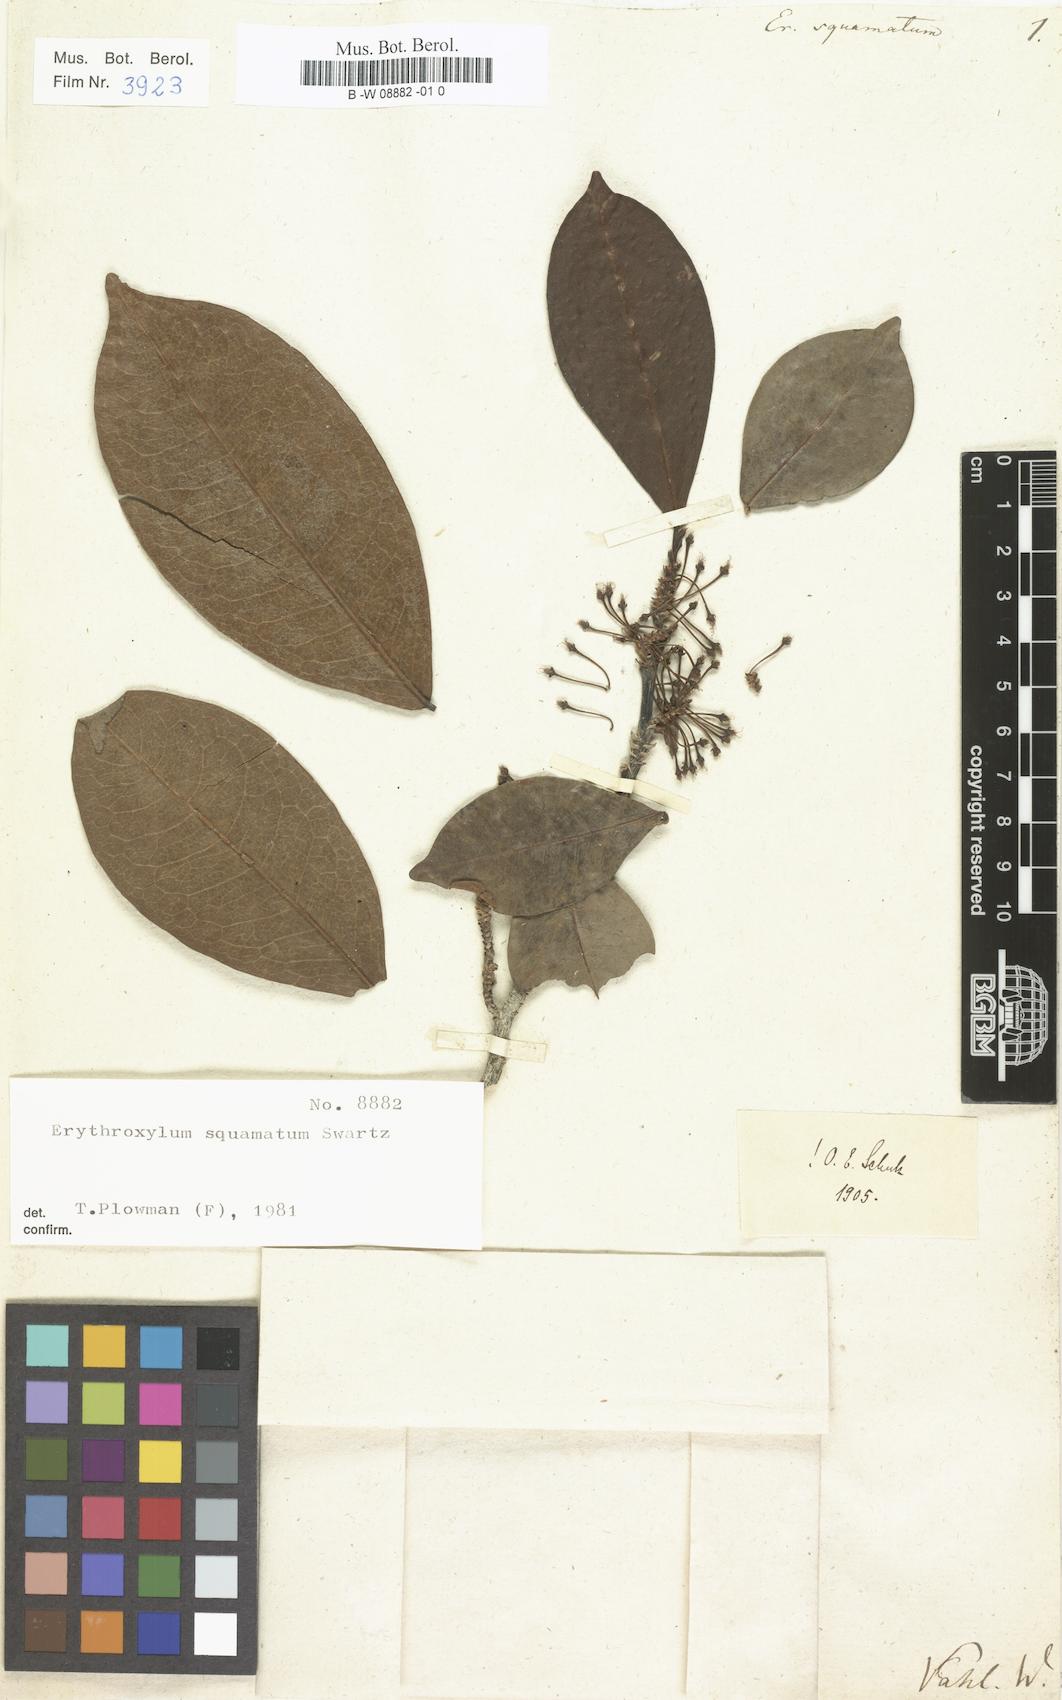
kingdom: Plantae
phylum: Tracheophyta
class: Magnoliopsida
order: Malpighiales
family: Erythroxylaceae
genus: Erythroxylum
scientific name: Erythroxylum squamatum
